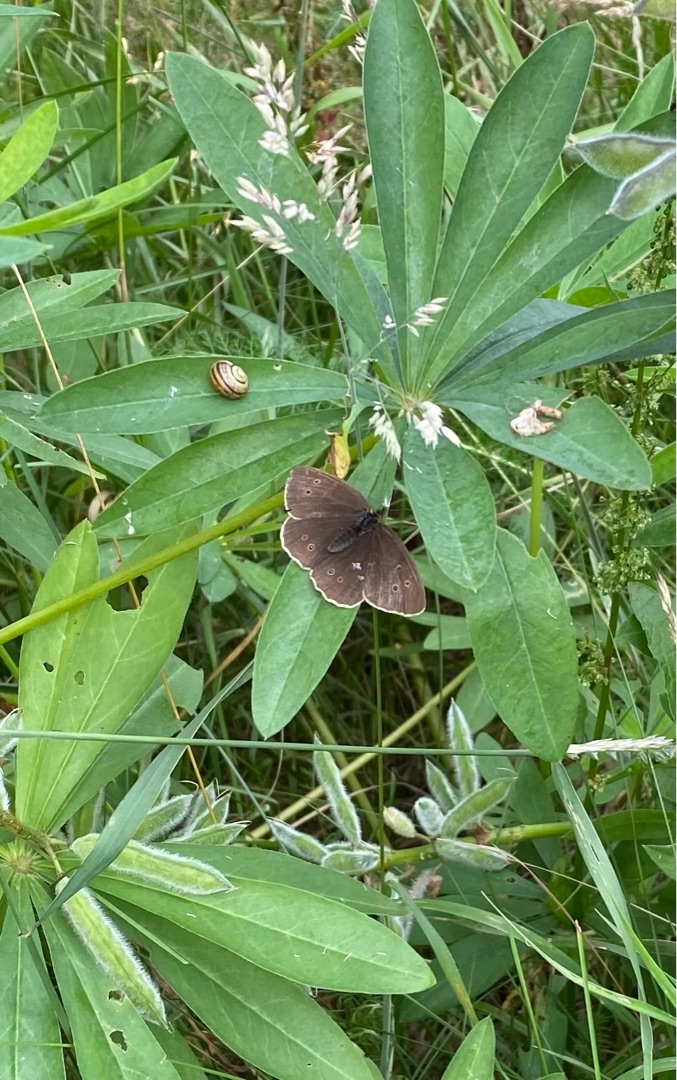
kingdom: Animalia
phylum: Arthropoda
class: Insecta
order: Lepidoptera
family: Nymphalidae
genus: Aphantopus
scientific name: Aphantopus hyperantus
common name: Engrandøje
